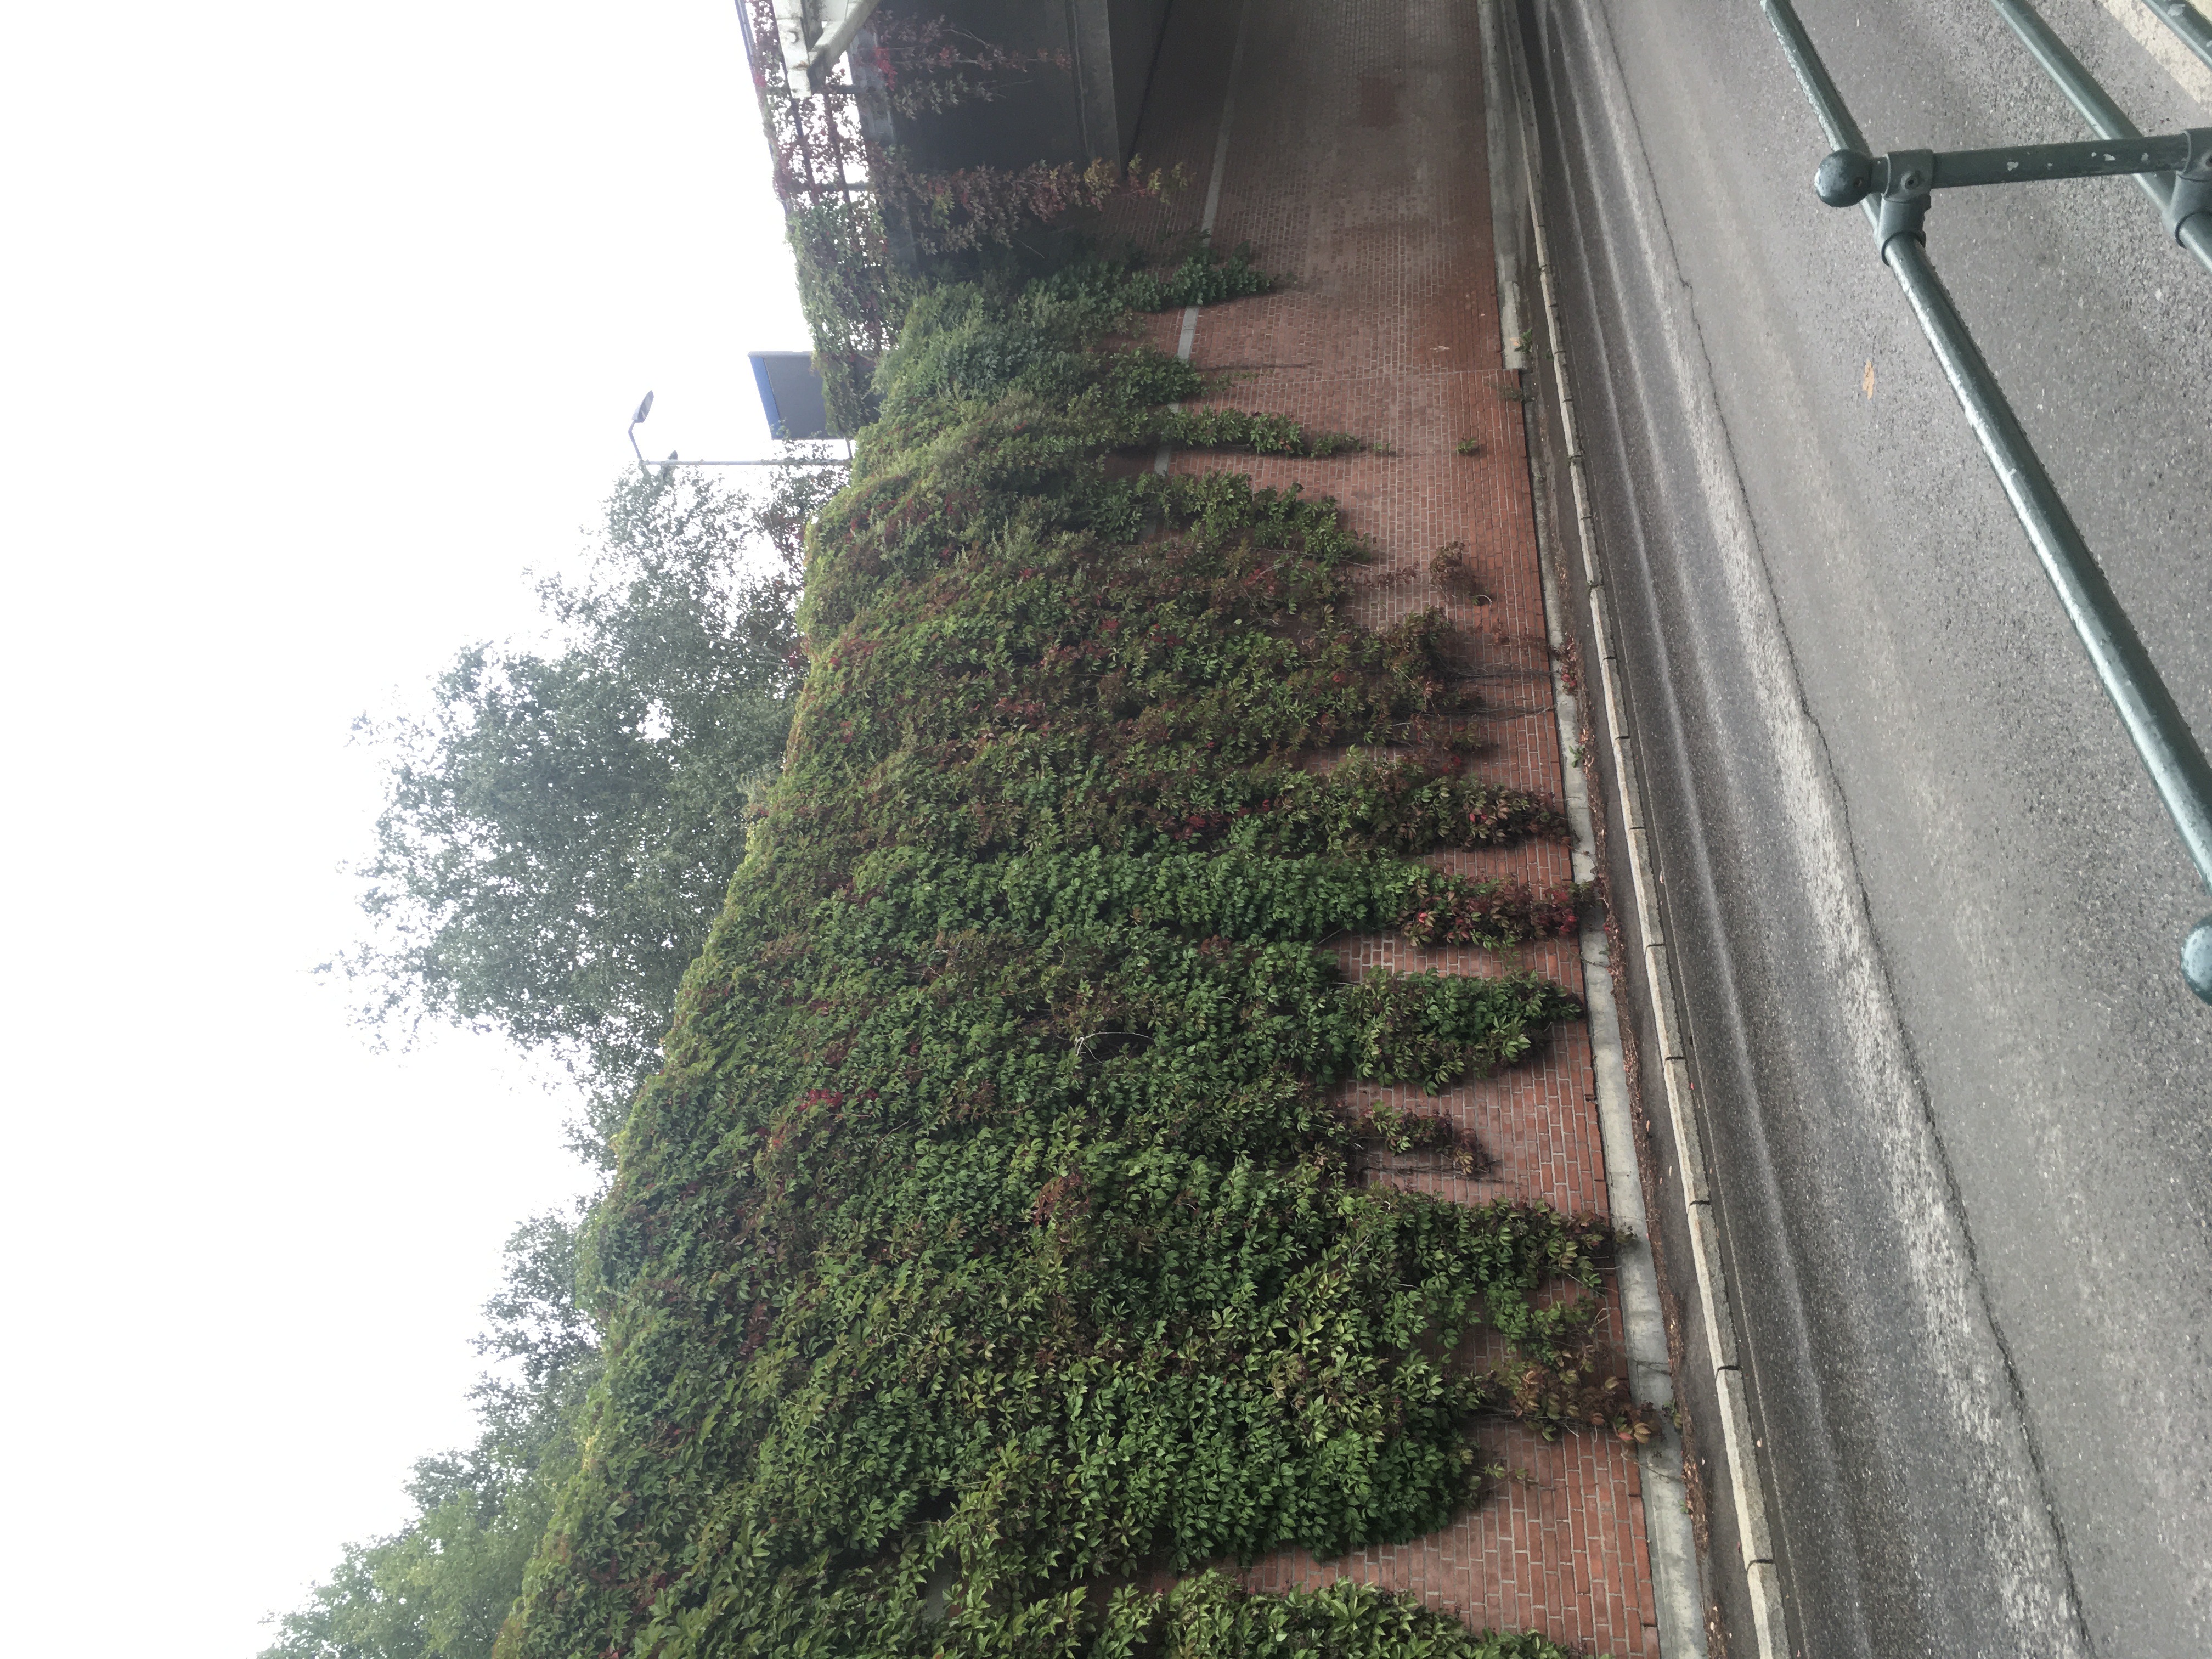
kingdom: Plantae
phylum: Tracheophyta
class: Magnoliopsida
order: Vitales
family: Vitaceae
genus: Parthenocissus
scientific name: Parthenocissus quinquefolia
